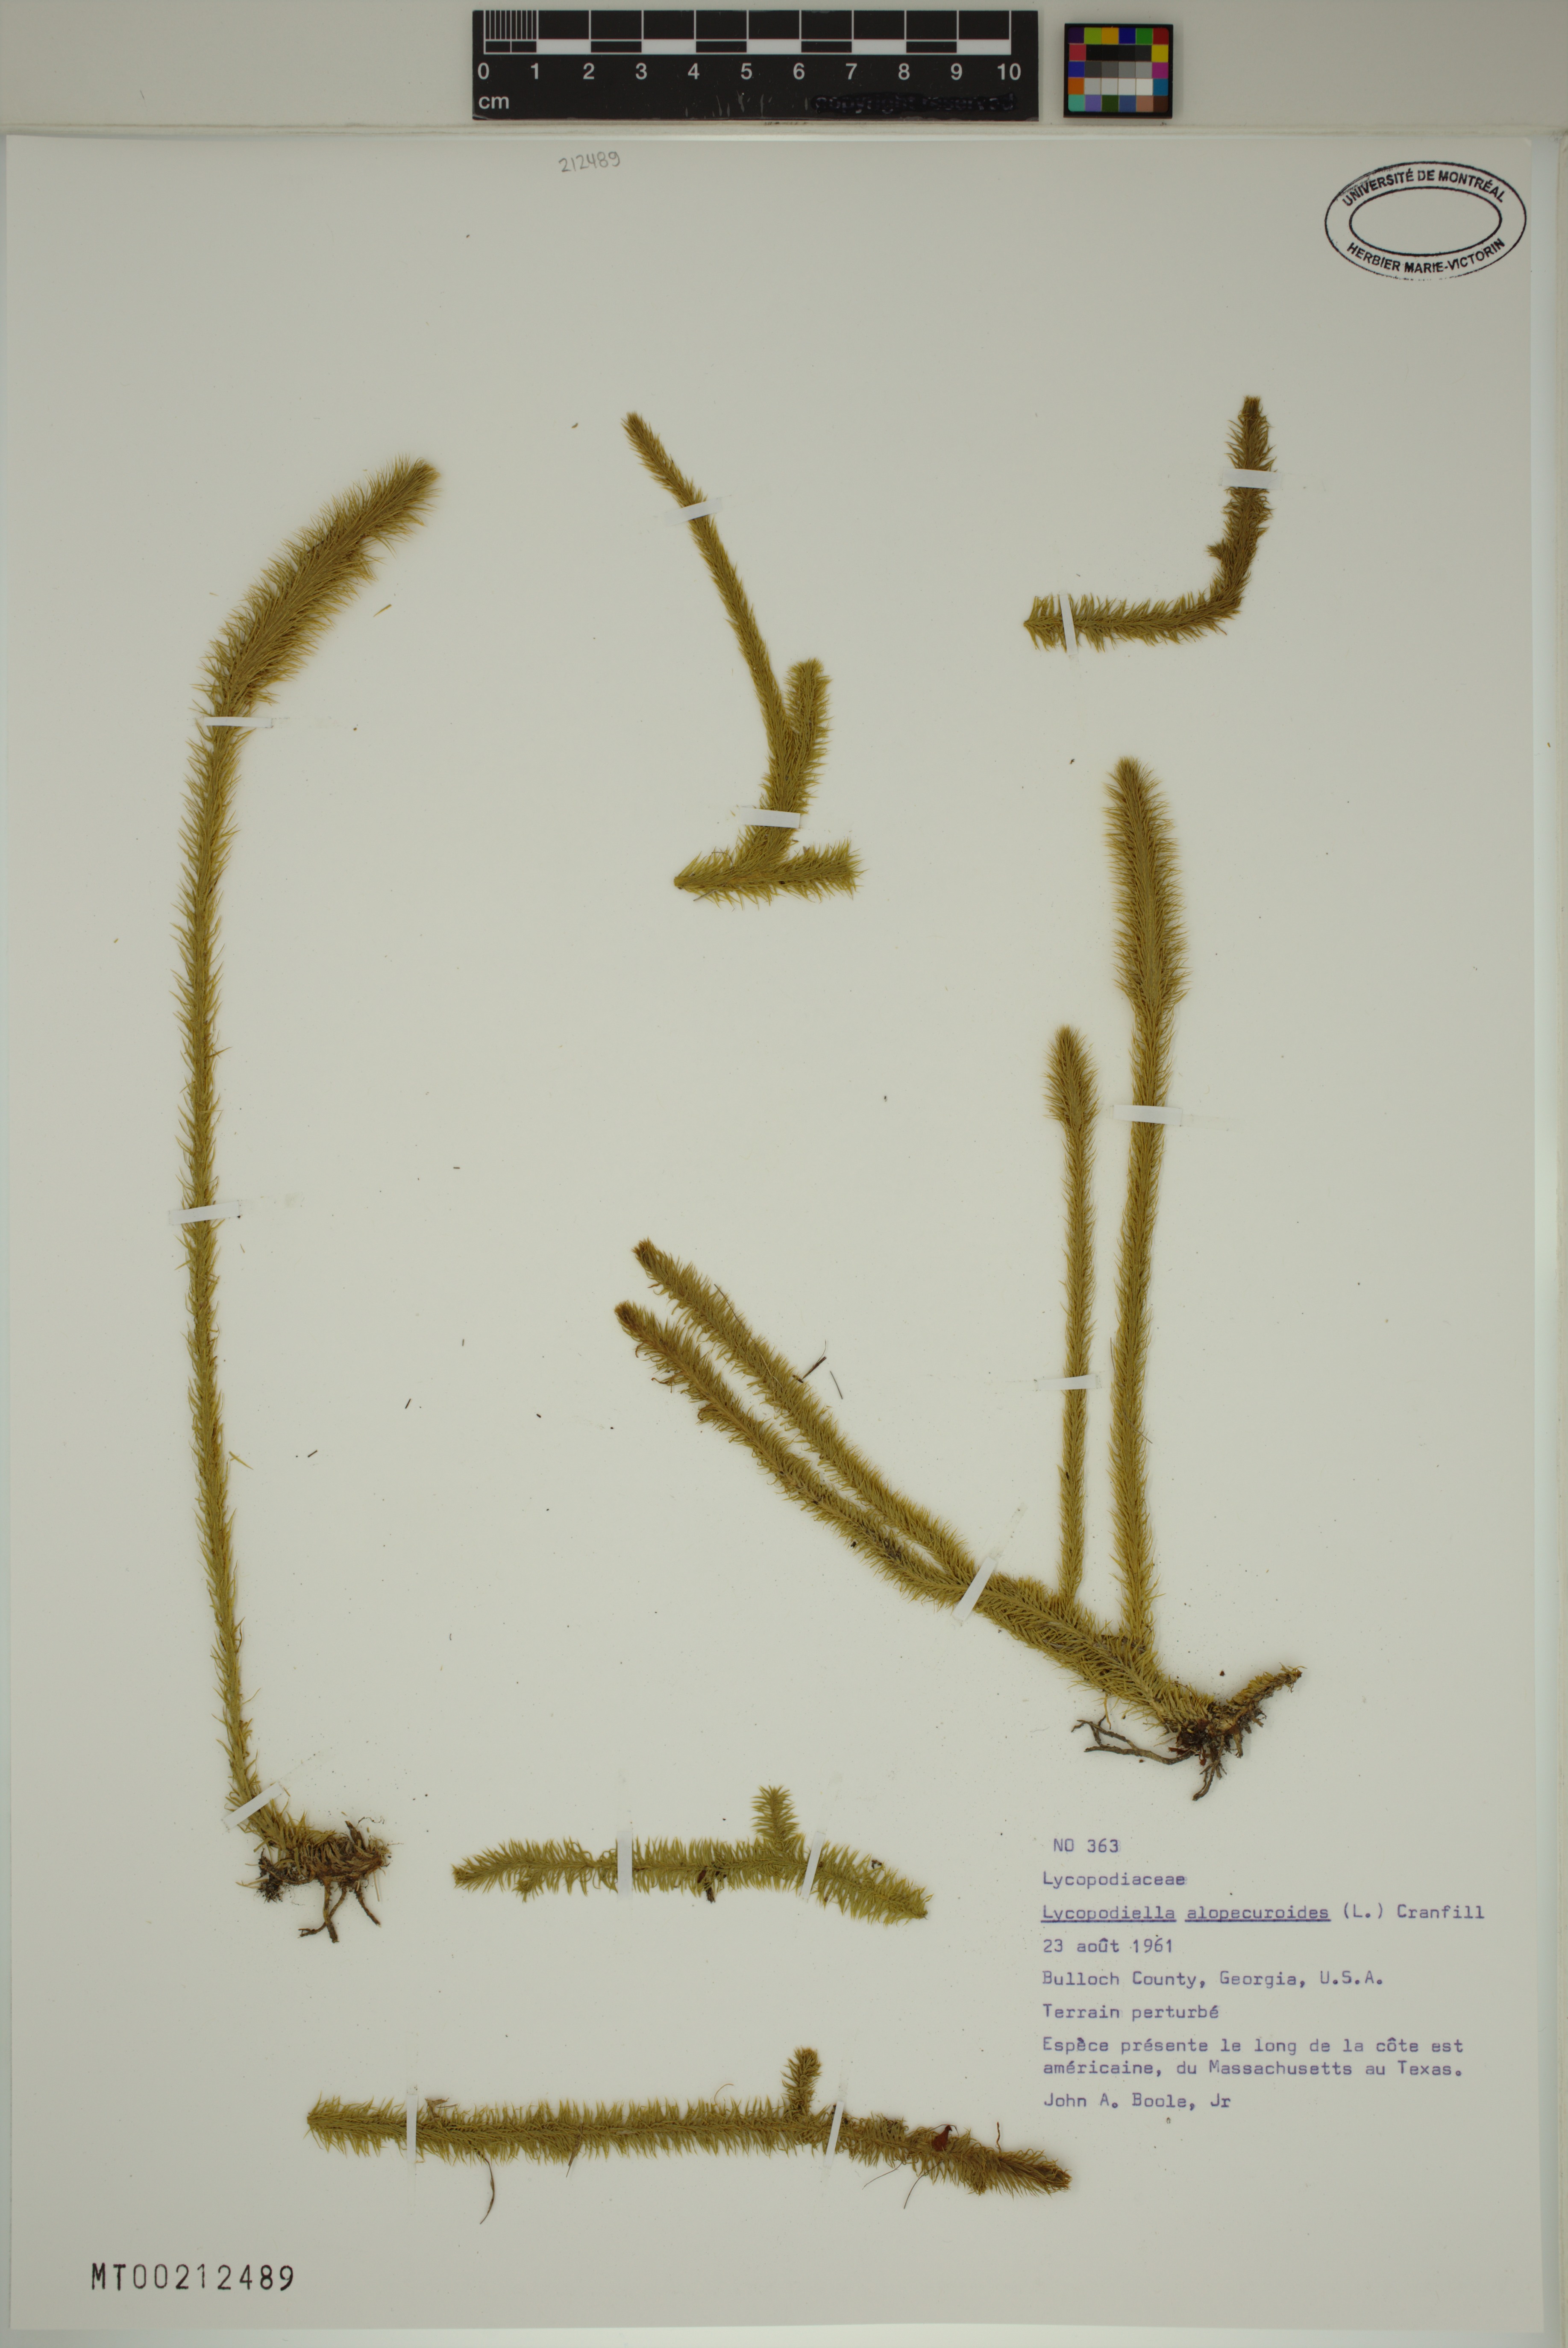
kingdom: Plantae
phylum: Tracheophyta
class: Lycopodiopsida
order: Lycopodiales
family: Lycopodiaceae
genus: Lycopodiella
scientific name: Lycopodiella alopecuroides
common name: Foxtail clubmoss
